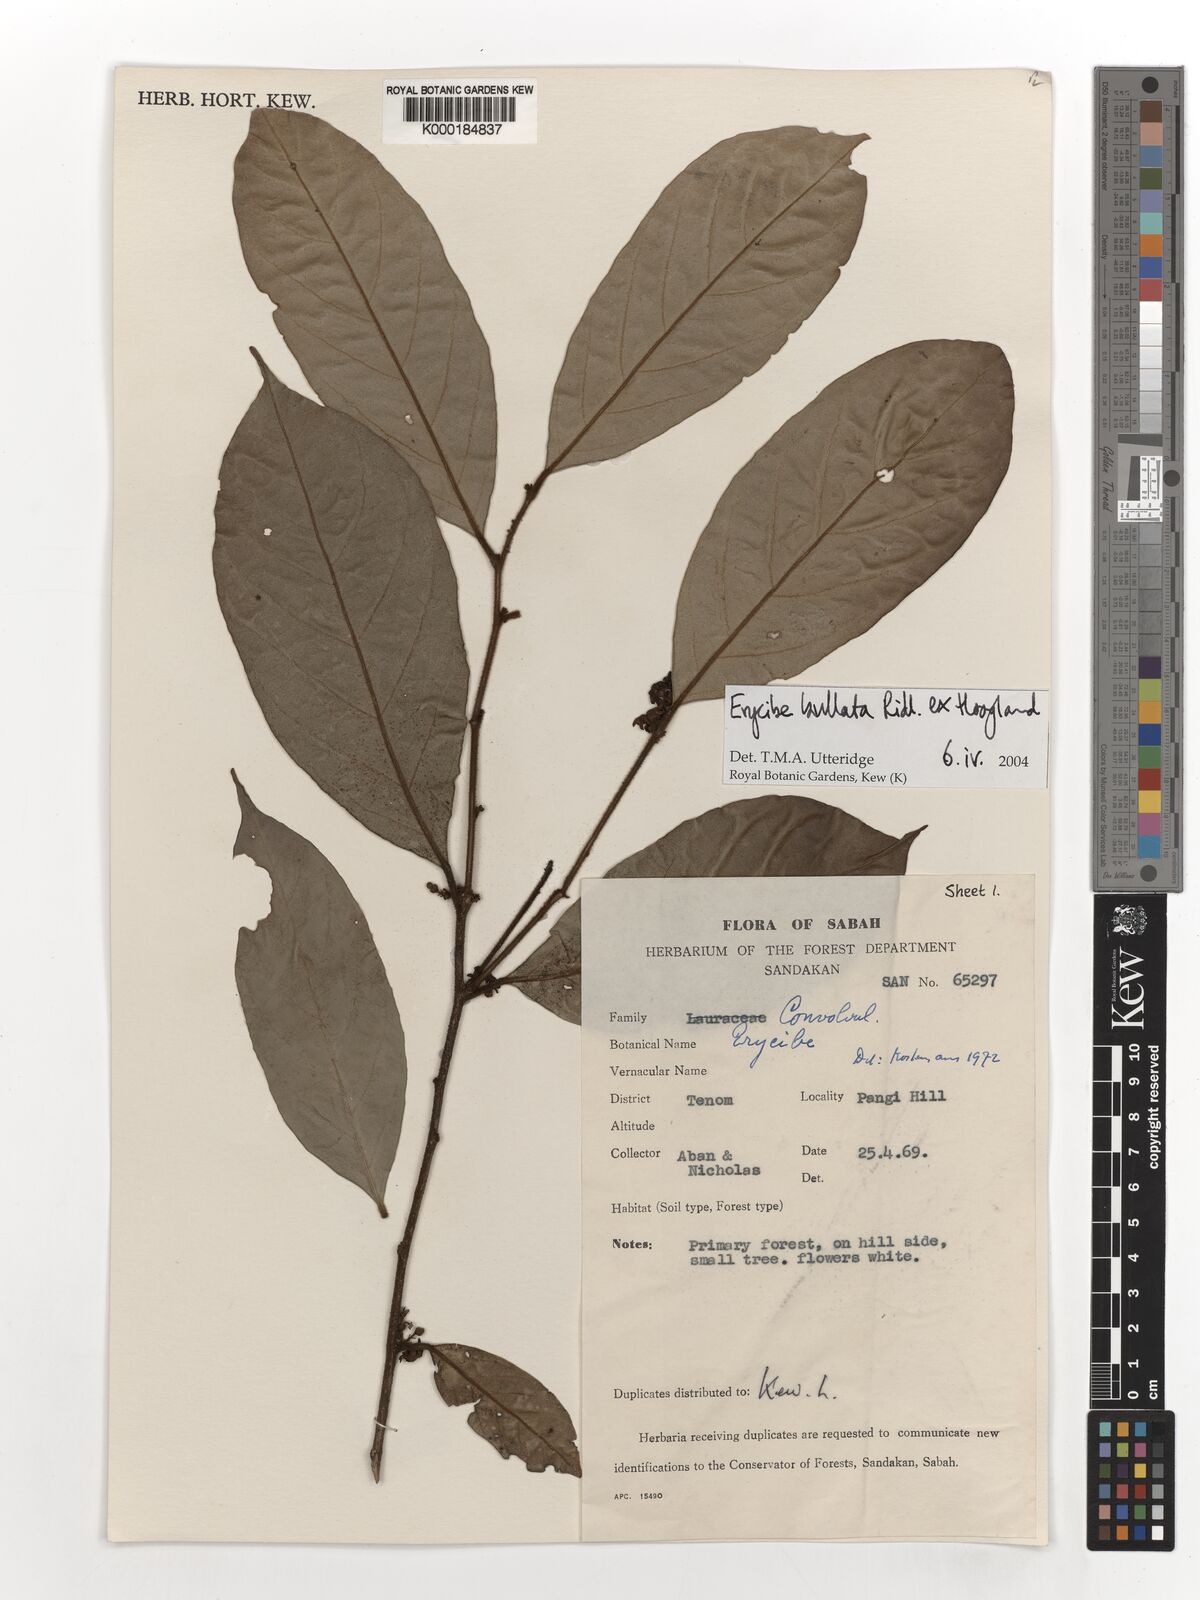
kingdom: Plantae
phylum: Tracheophyta
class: Magnoliopsida
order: Solanales
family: Convolvulaceae
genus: Erycibe
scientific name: Erycibe bullata
